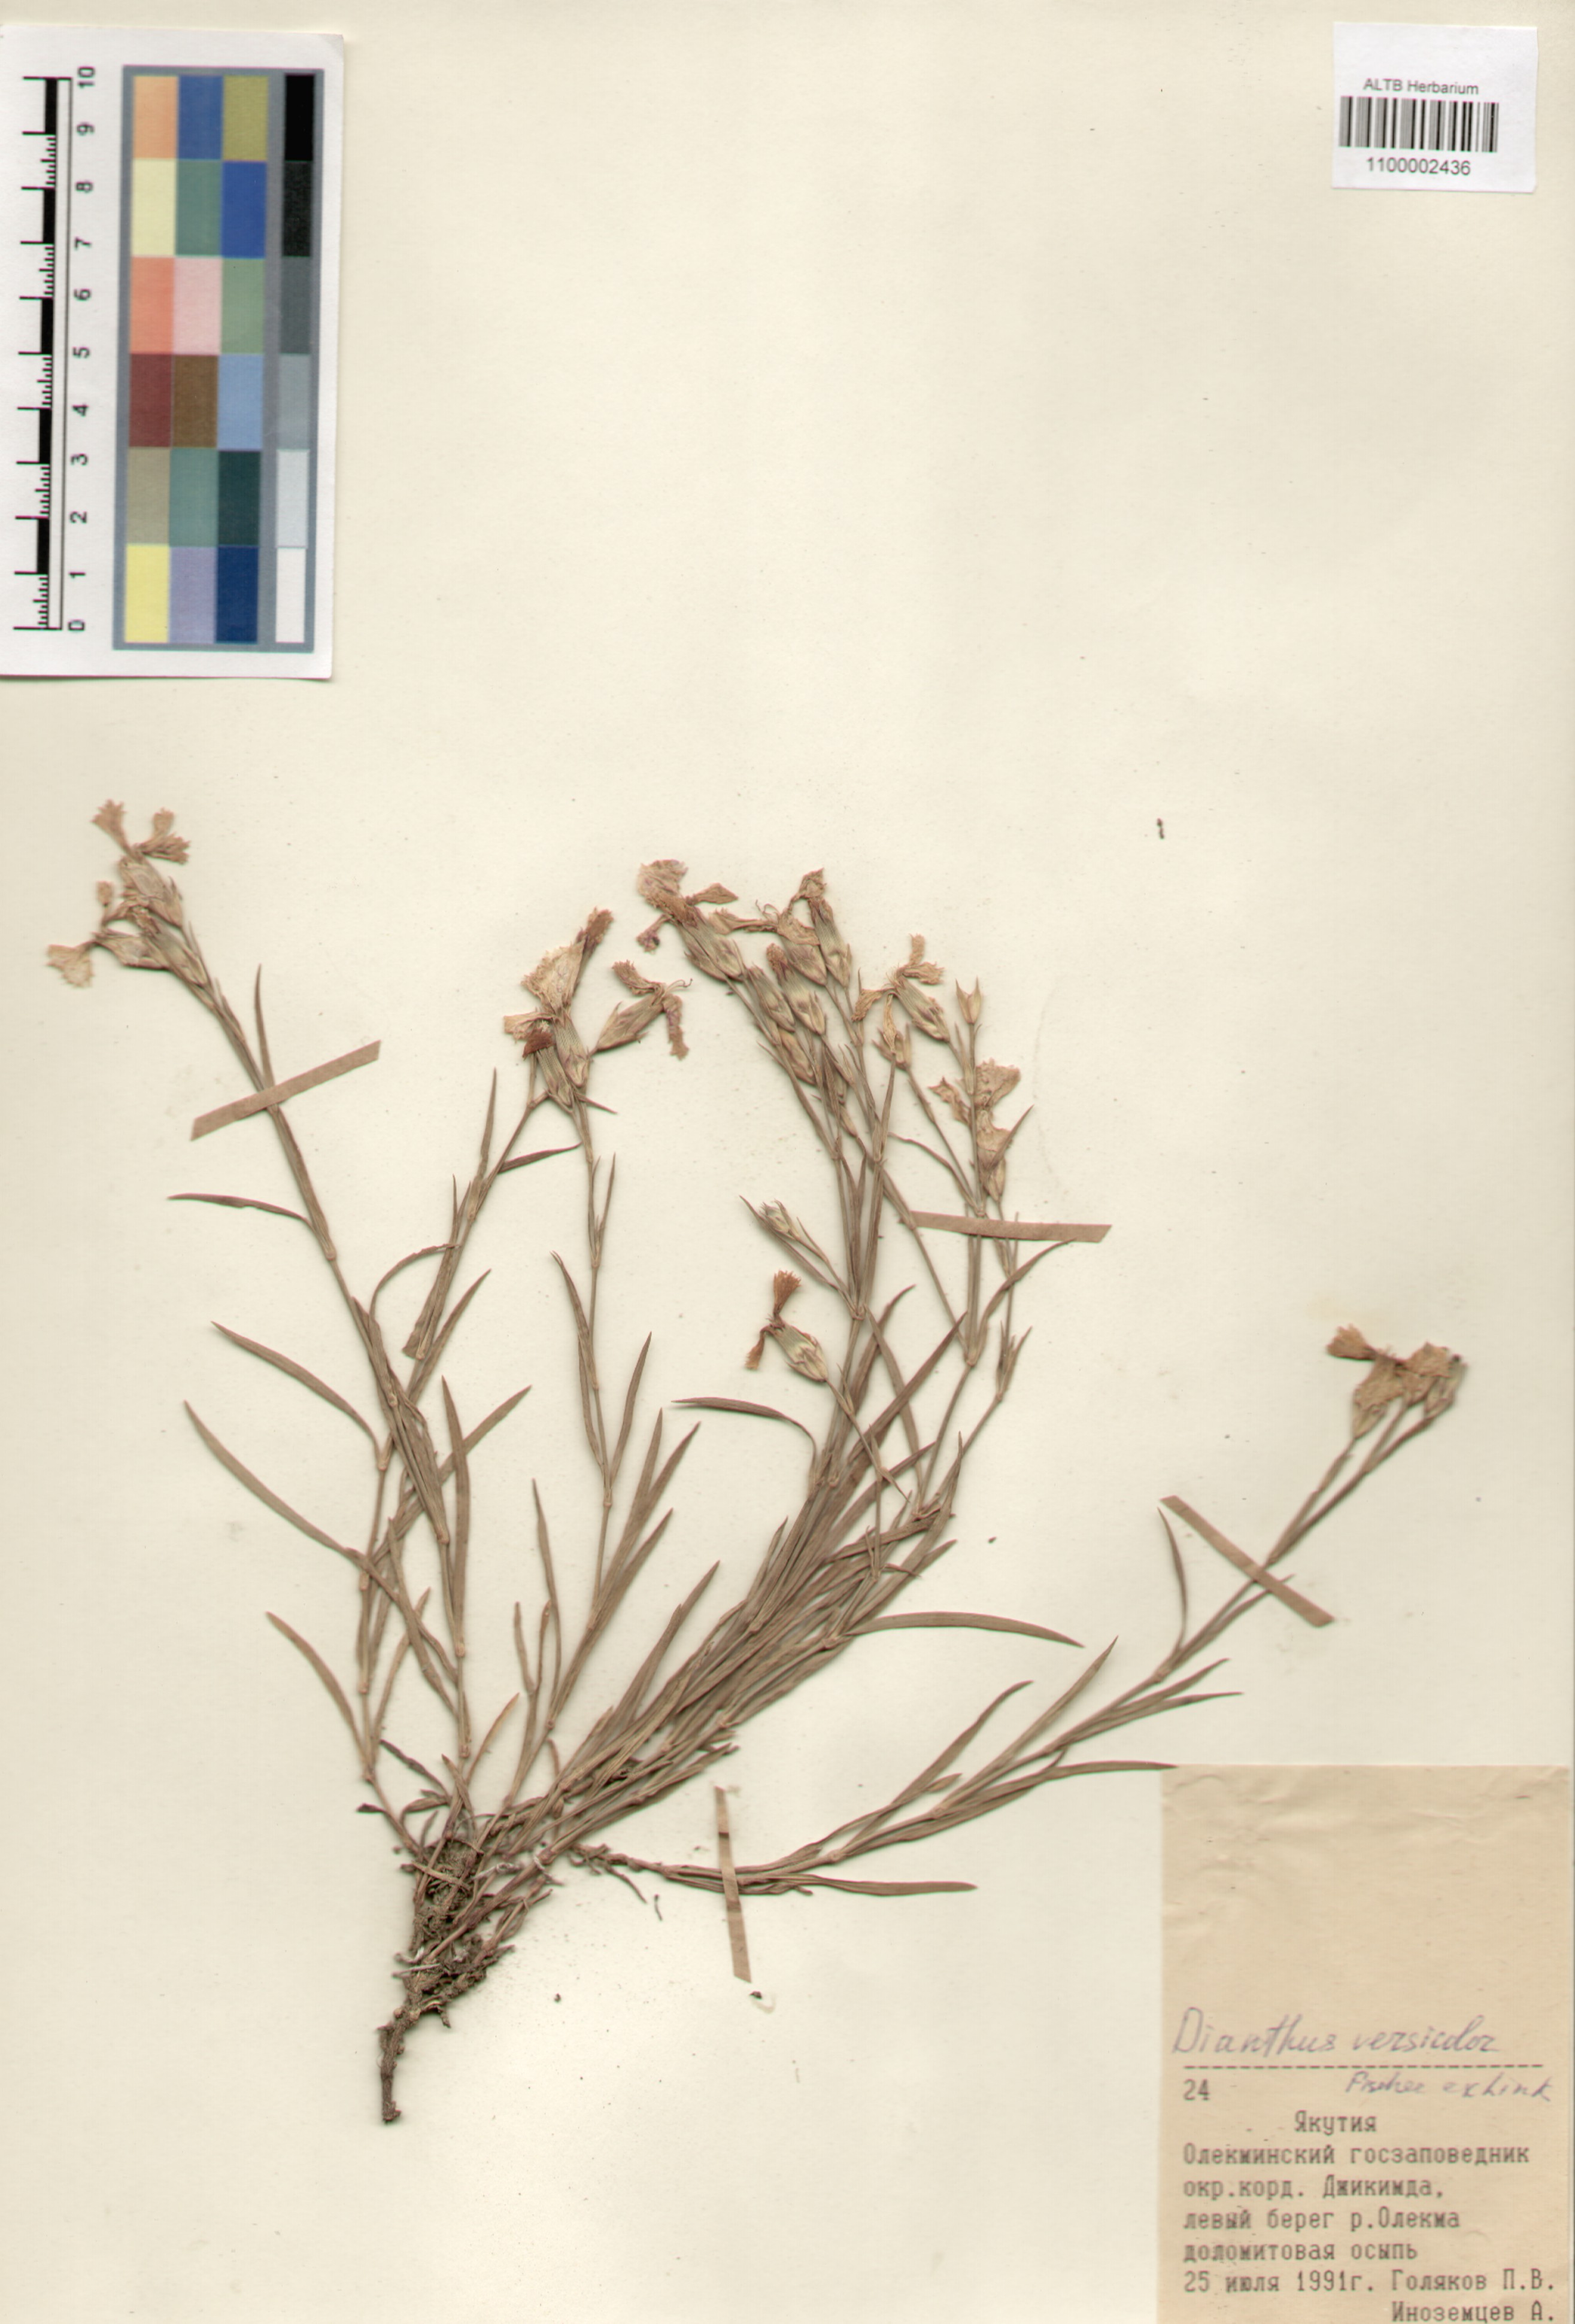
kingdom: Plantae
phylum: Tracheophyta
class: Magnoliopsida
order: Caryophyllales
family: Caryophyllaceae
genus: Dianthus
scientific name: Dianthus chinensis
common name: Rainbow pink
